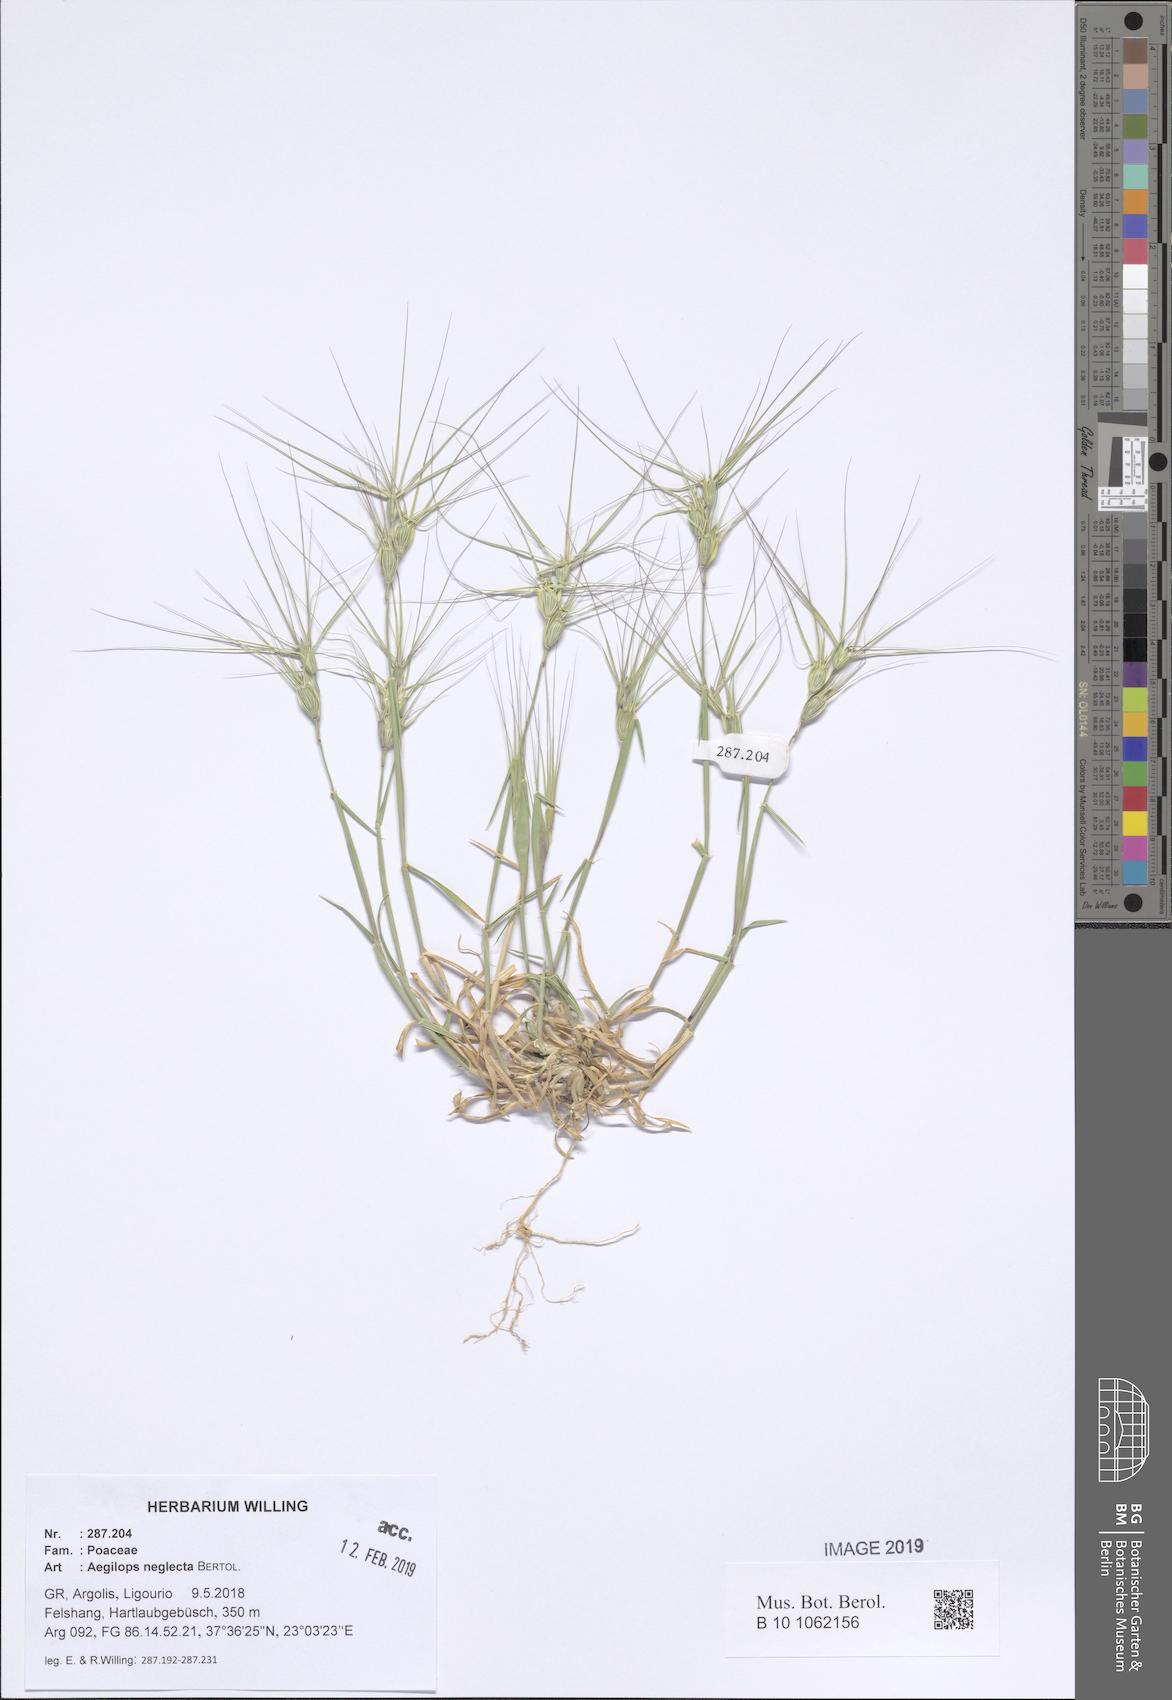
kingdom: Plantae
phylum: Tracheophyta
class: Liliopsida
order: Poales
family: Poaceae
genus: Aegilops
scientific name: Aegilops neglecta
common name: Three-awn goat grass
